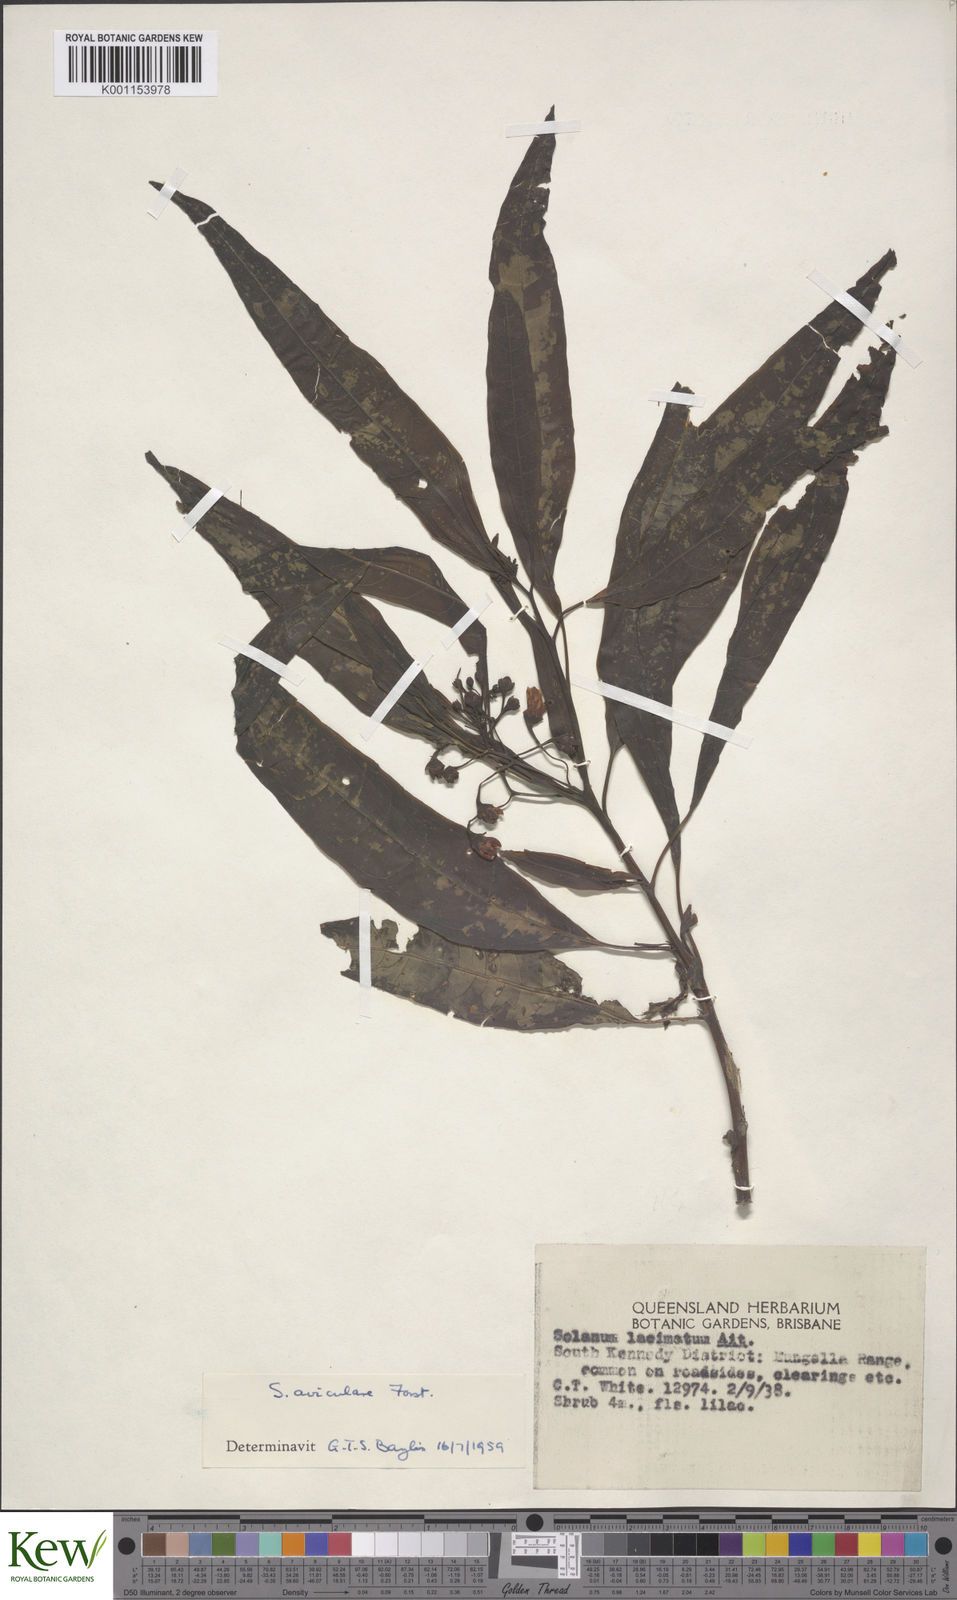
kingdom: Plantae
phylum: Tracheophyta
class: Magnoliopsida
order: Solanales
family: Solanaceae
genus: Solanum
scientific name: Solanum aviculare
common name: New zealand nightshade
